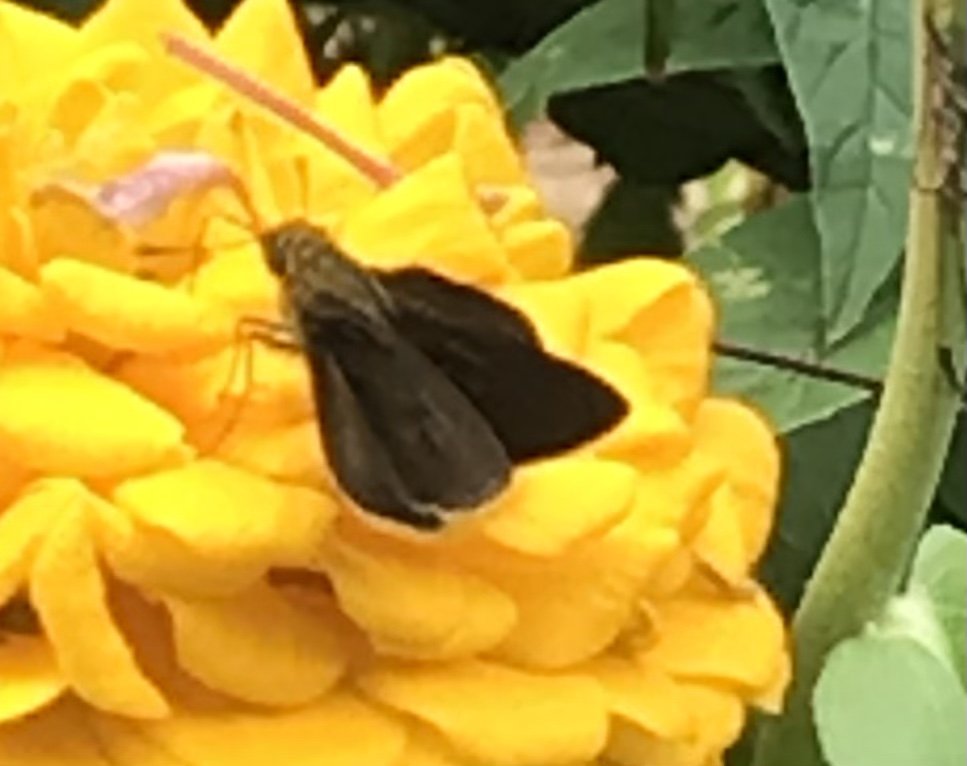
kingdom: Animalia
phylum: Arthropoda
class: Insecta
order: Lepidoptera
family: Hesperiidae
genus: Euphyes
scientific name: Euphyes vestris
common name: Dun Skipper
